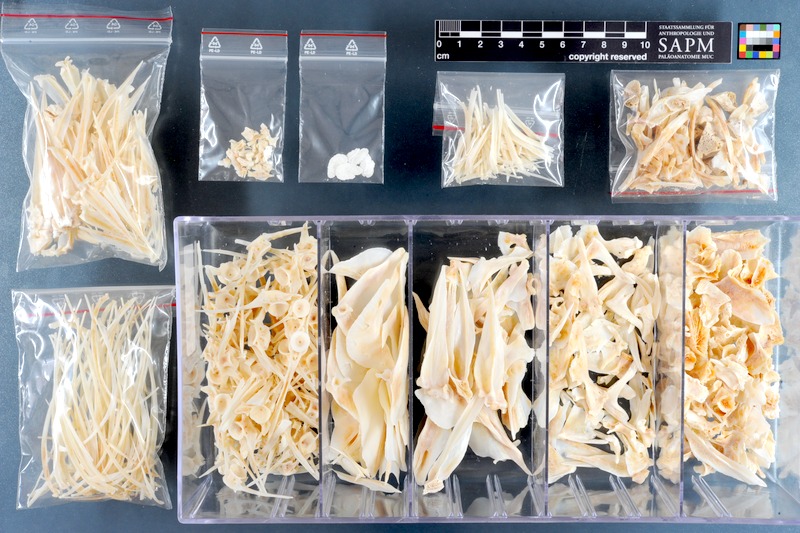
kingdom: Animalia
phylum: Chordata
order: Perciformes
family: Cichlidae
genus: Oreochromis
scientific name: Oreochromis niloticus
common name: Nile tilapia
